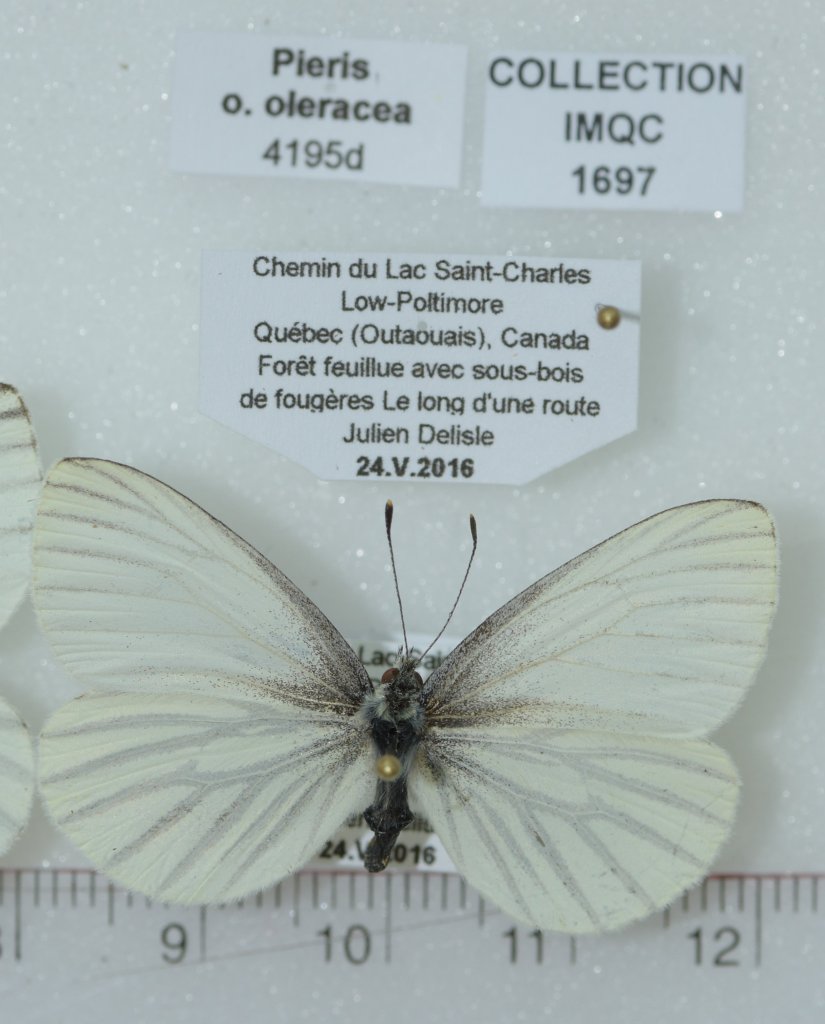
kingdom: Animalia
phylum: Arthropoda
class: Insecta
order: Lepidoptera
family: Pieridae
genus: Pieris
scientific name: Pieris oleracea
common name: Mustard White
